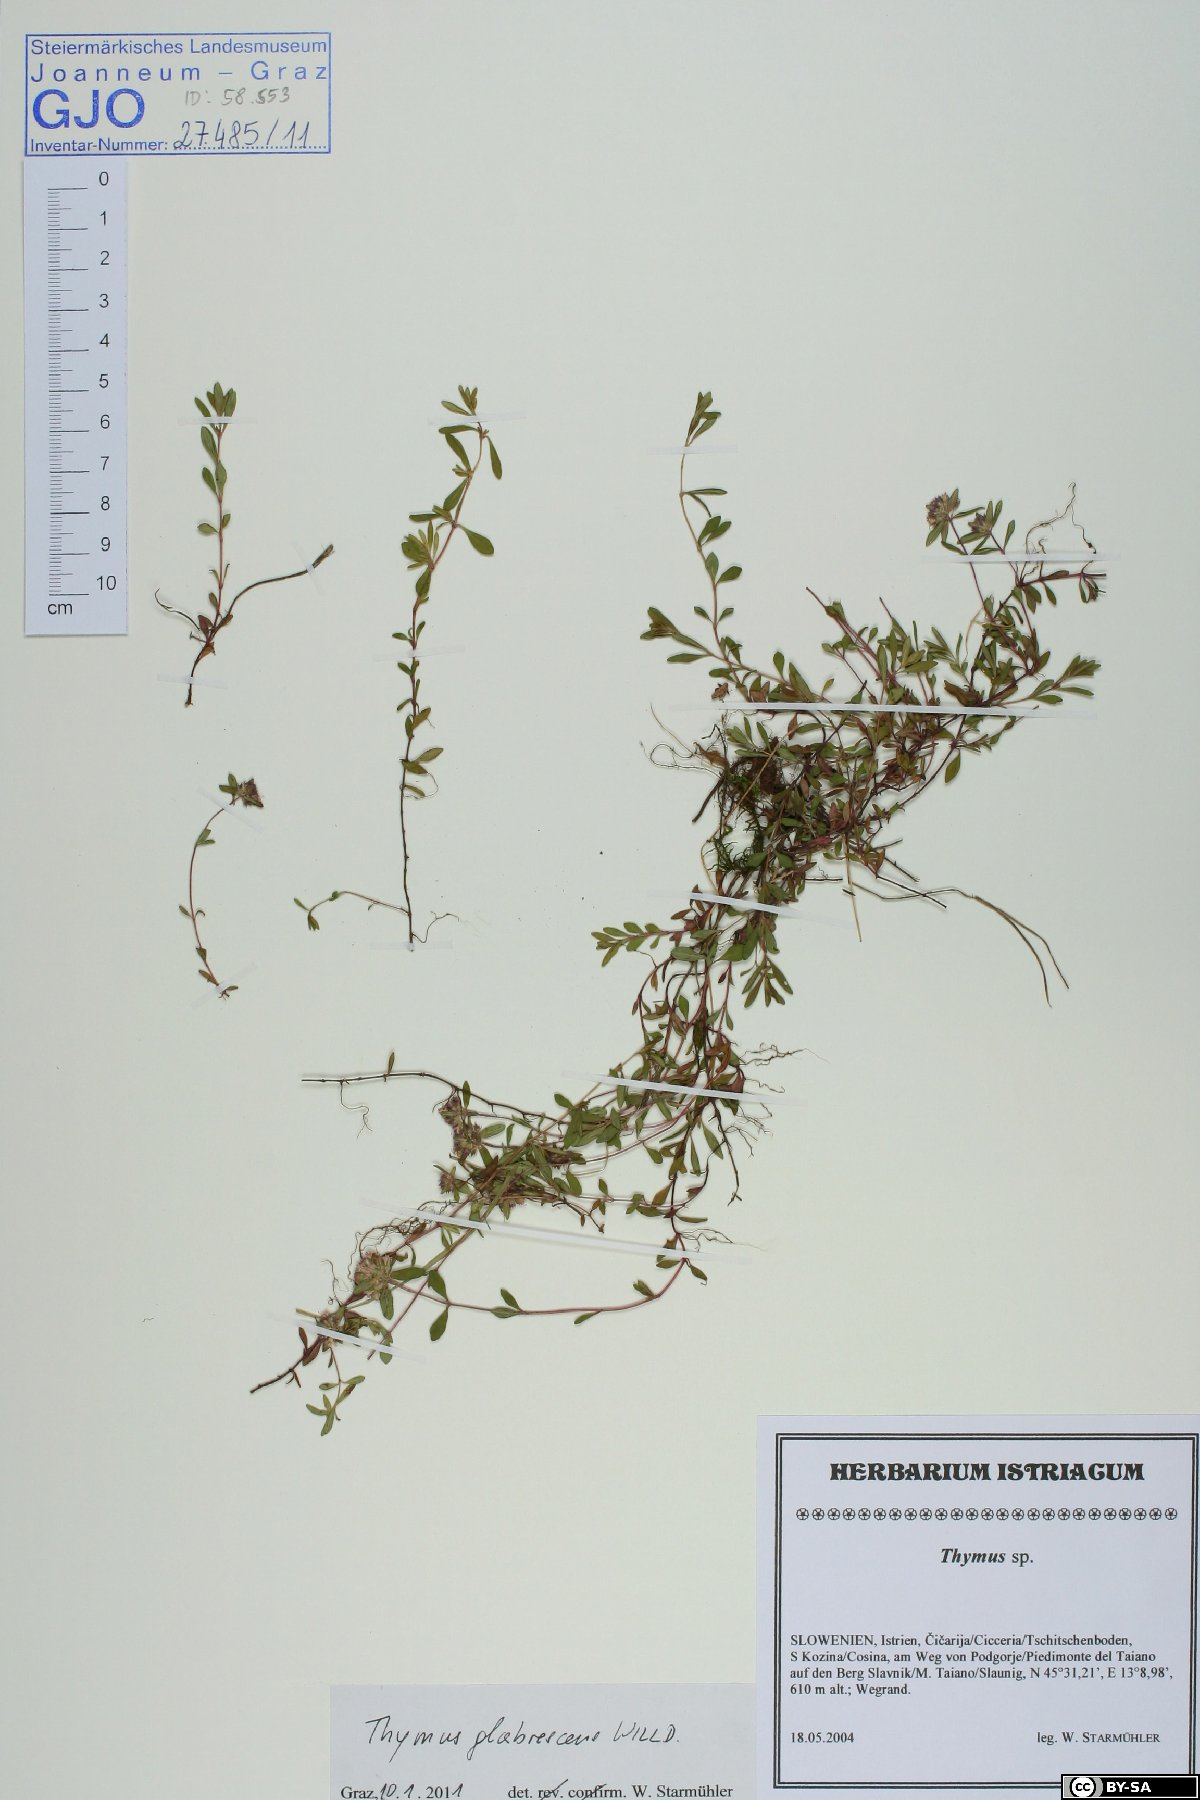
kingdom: Plantae
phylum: Tracheophyta
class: Magnoliopsida
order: Lamiales
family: Lamiaceae
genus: Thymus
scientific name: Thymus odoratissimus
